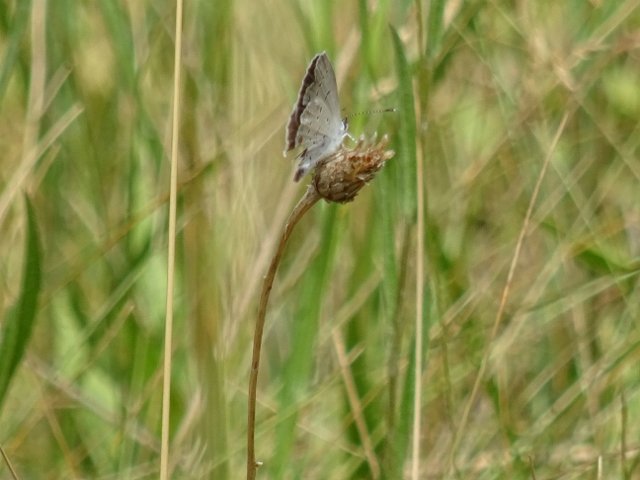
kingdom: Animalia
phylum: Arthropoda
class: Insecta
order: Lepidoptera
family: Lycaenidae
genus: Elkalyce
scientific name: Elkalyce comyntas
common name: Eastern Tailed-Blue
